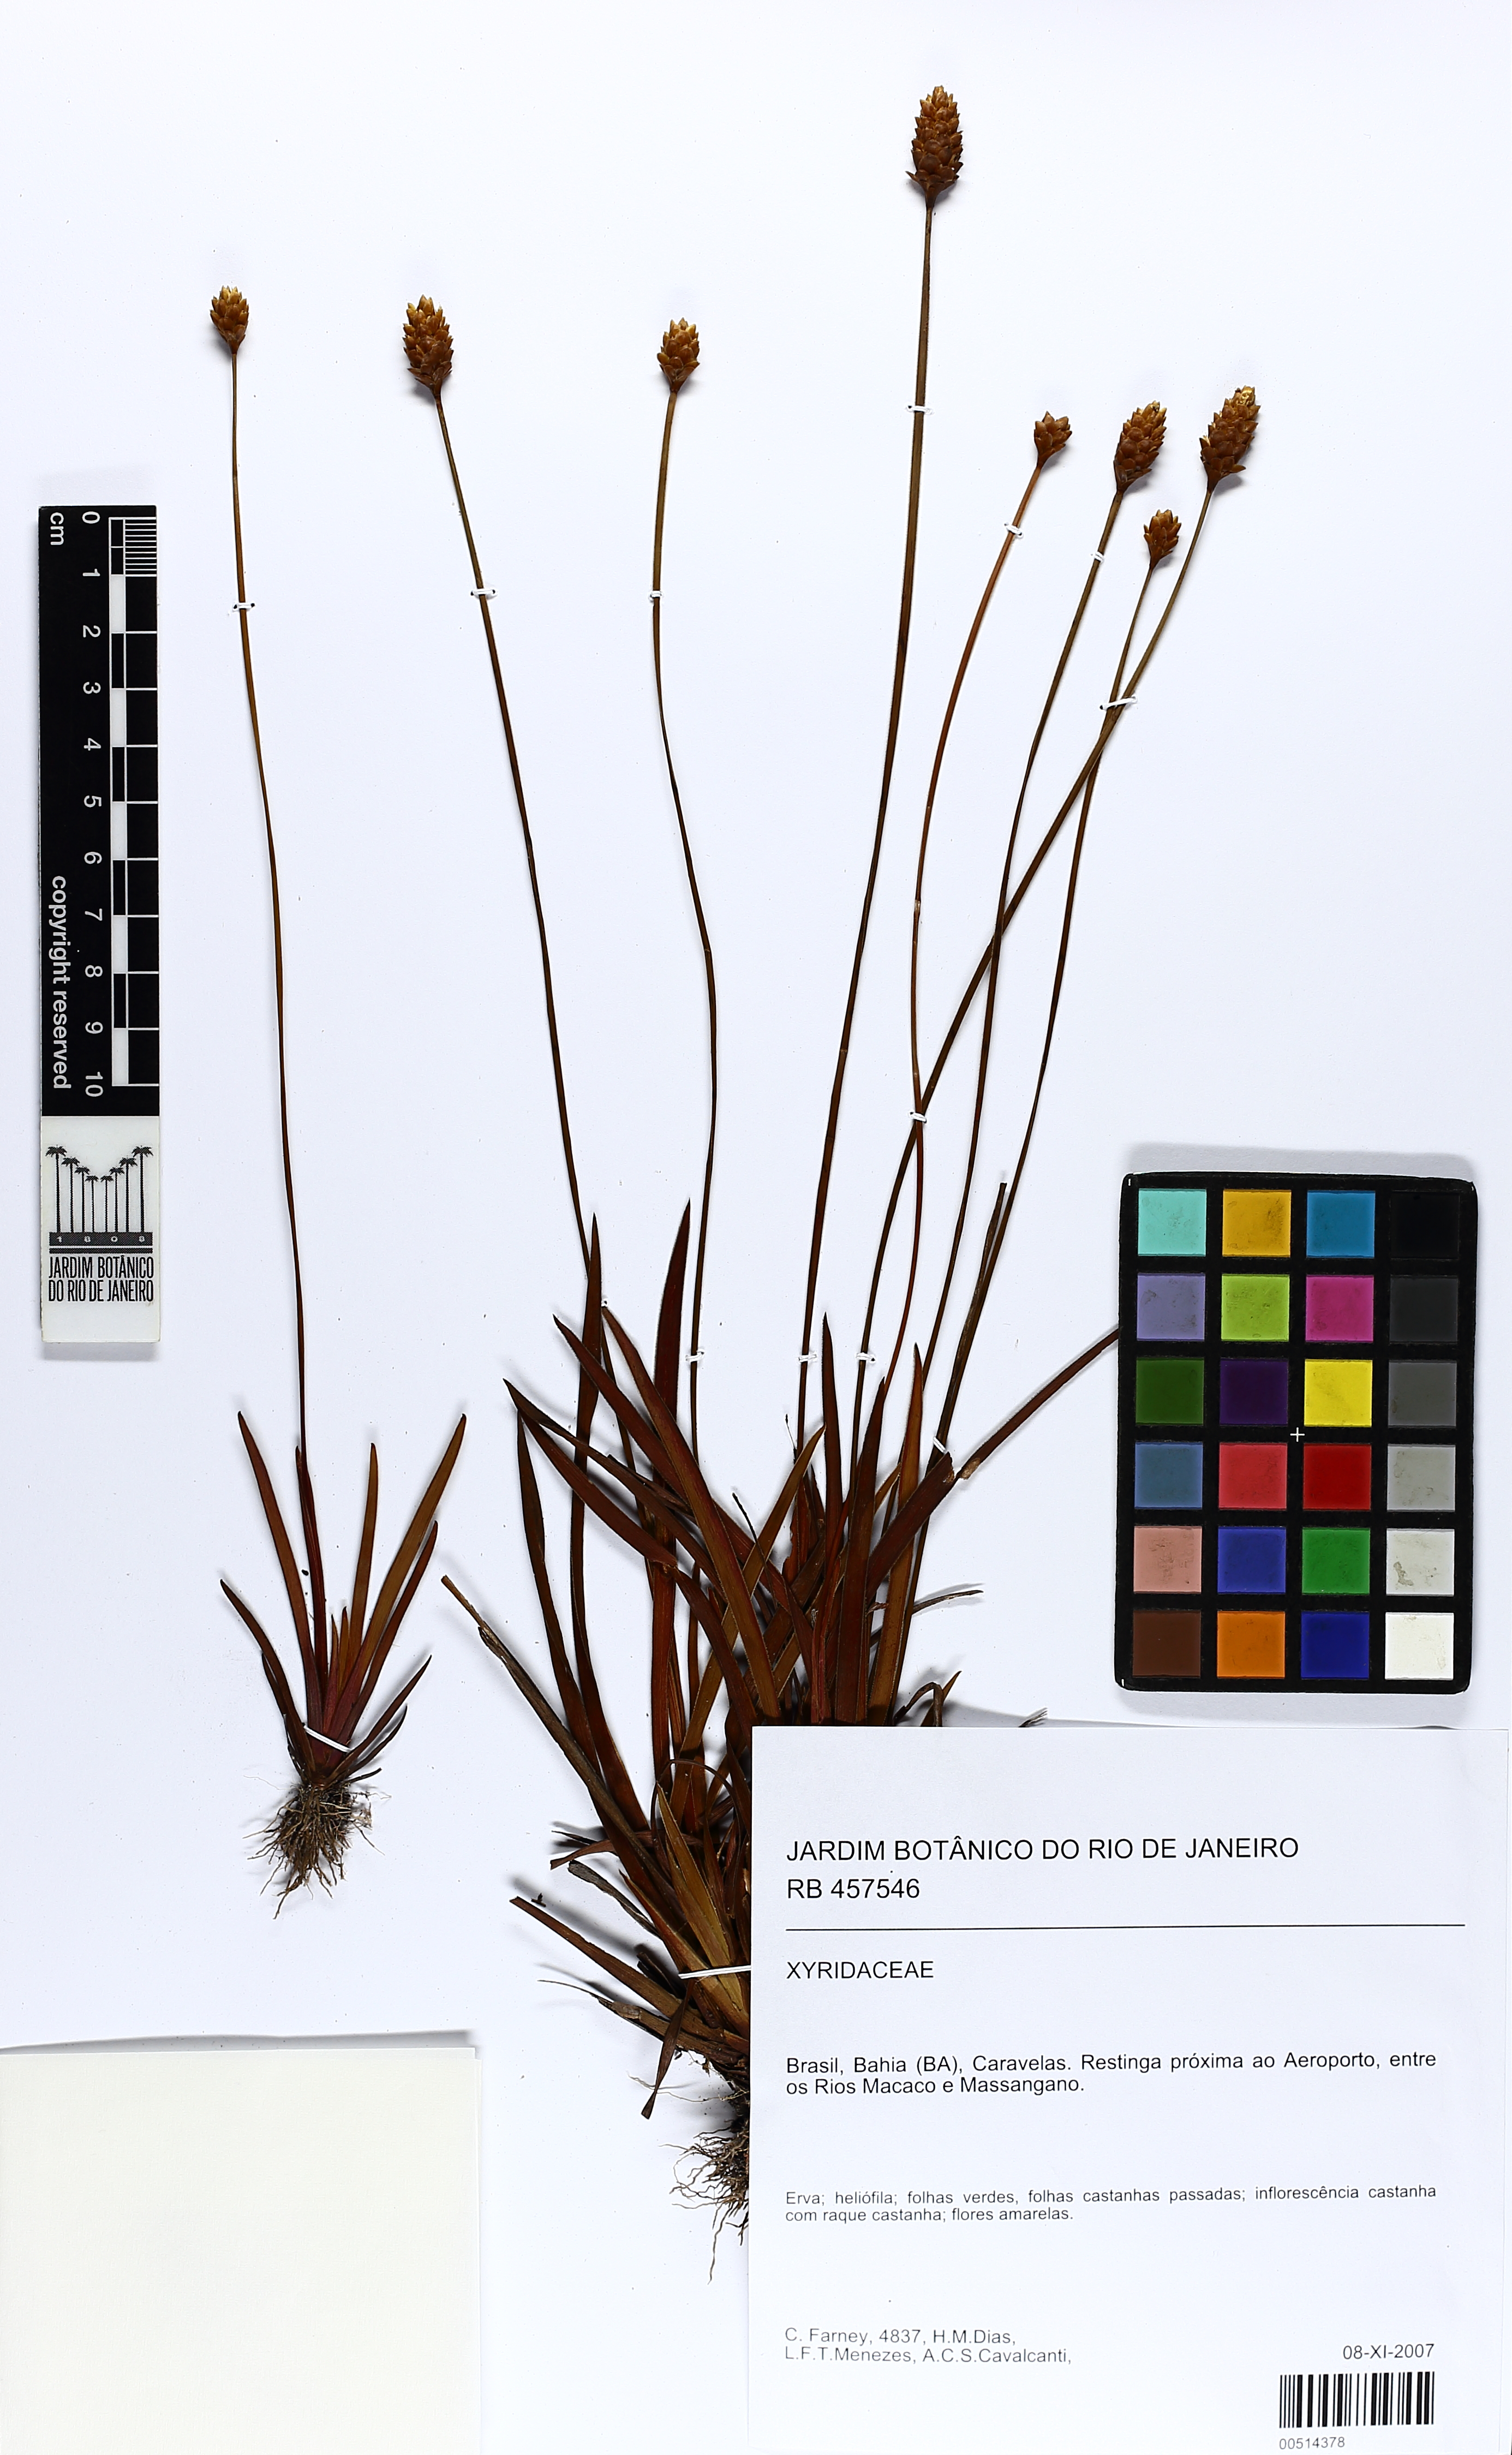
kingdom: Plantae
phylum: Tracheophyta
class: Liliopsida
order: Poales
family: Xyridaceae
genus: Xyris
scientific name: Xyris ciliata
